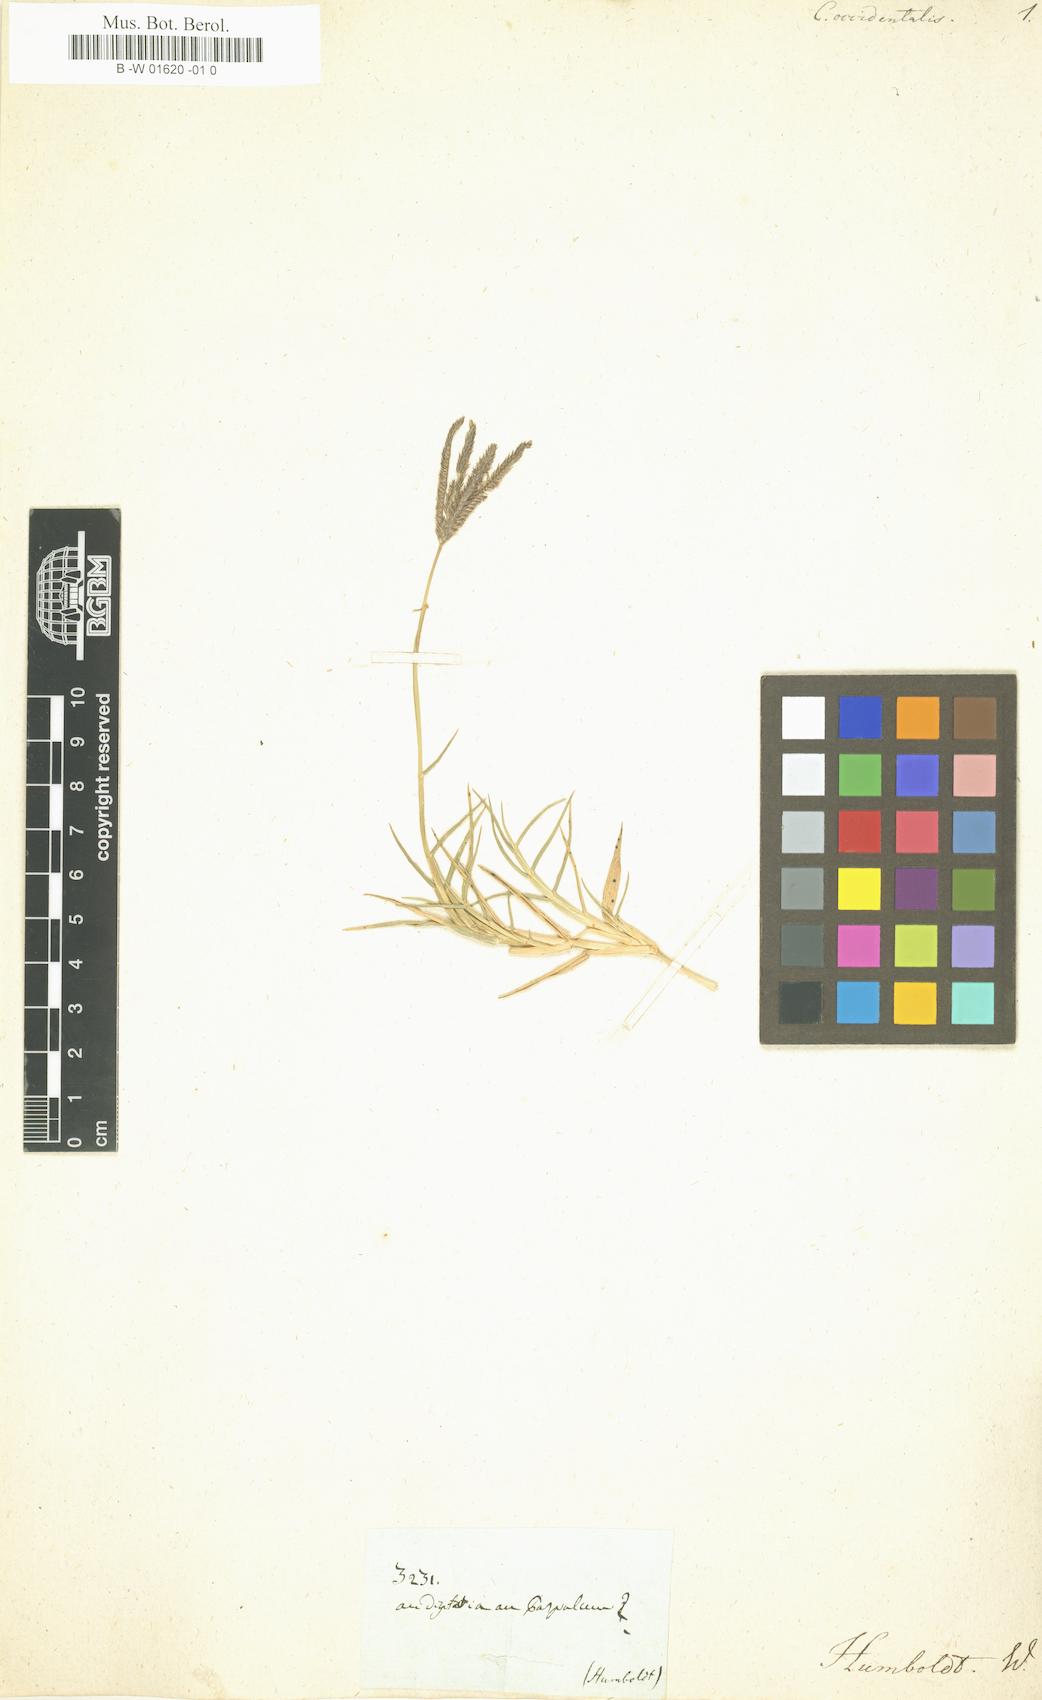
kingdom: Plantae
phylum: Tracheophyta
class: Liliopsida
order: Poales
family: Poaceae
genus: Cynodon
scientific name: Cynodon dactylon
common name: Bermuda grass
